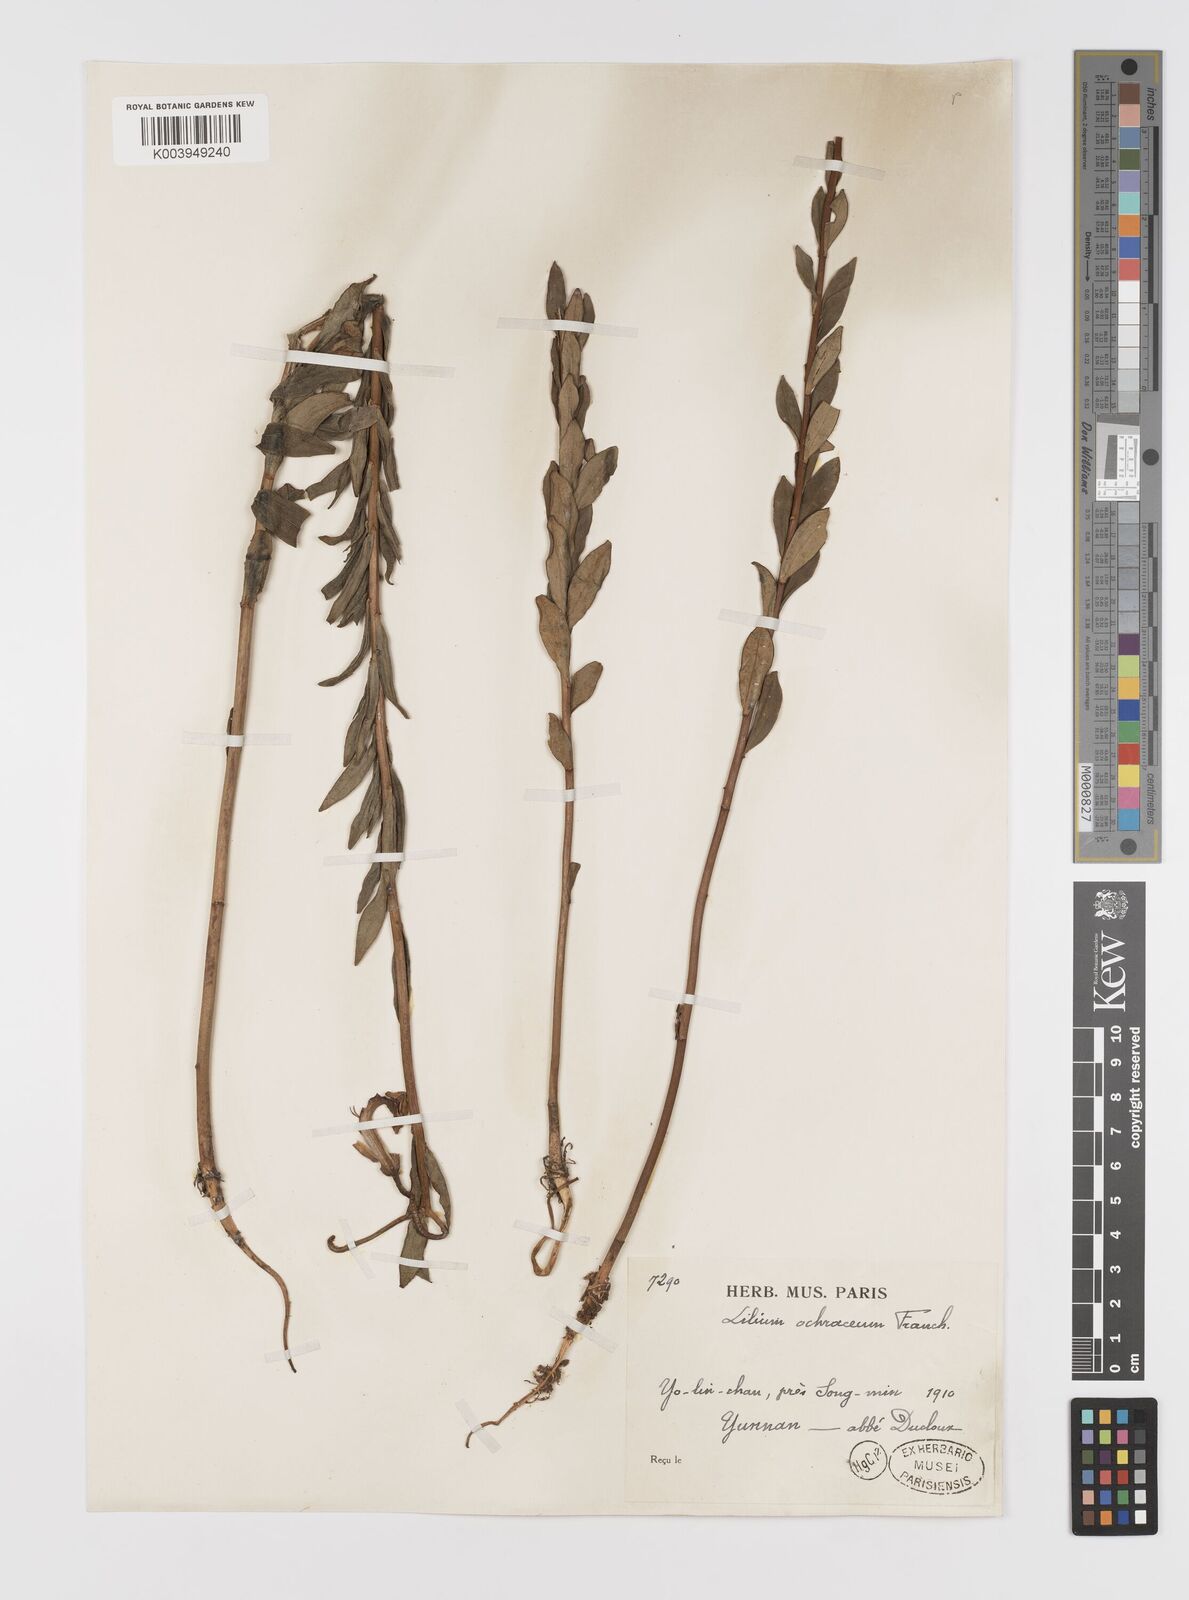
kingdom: Plantae
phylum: Tracheophyta
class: Liliopsida
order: Liliales
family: Liliaceae
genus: Lilium
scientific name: Lilium primulinum
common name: Ochre lily
